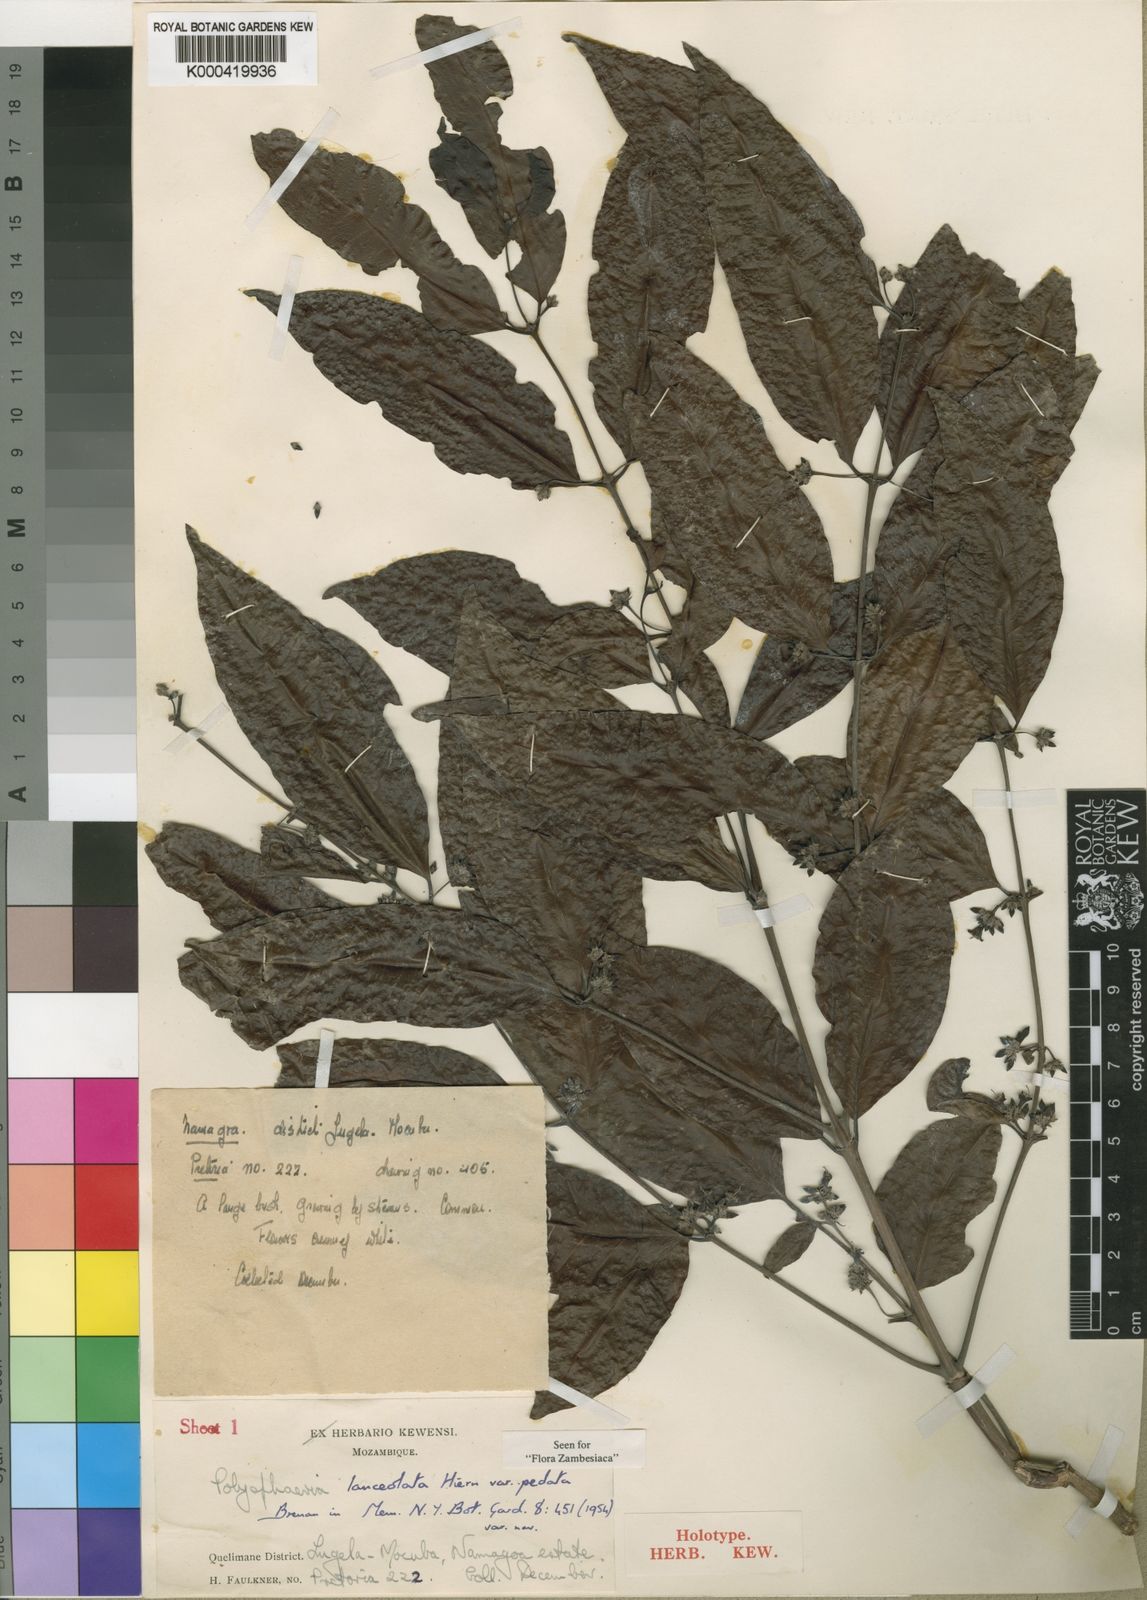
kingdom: Plantae
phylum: Tracheophyta
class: Magnoliopsida
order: Gentianales
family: Rubiaceae
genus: Polysphaeria
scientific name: Polysphaeria lanceolata
